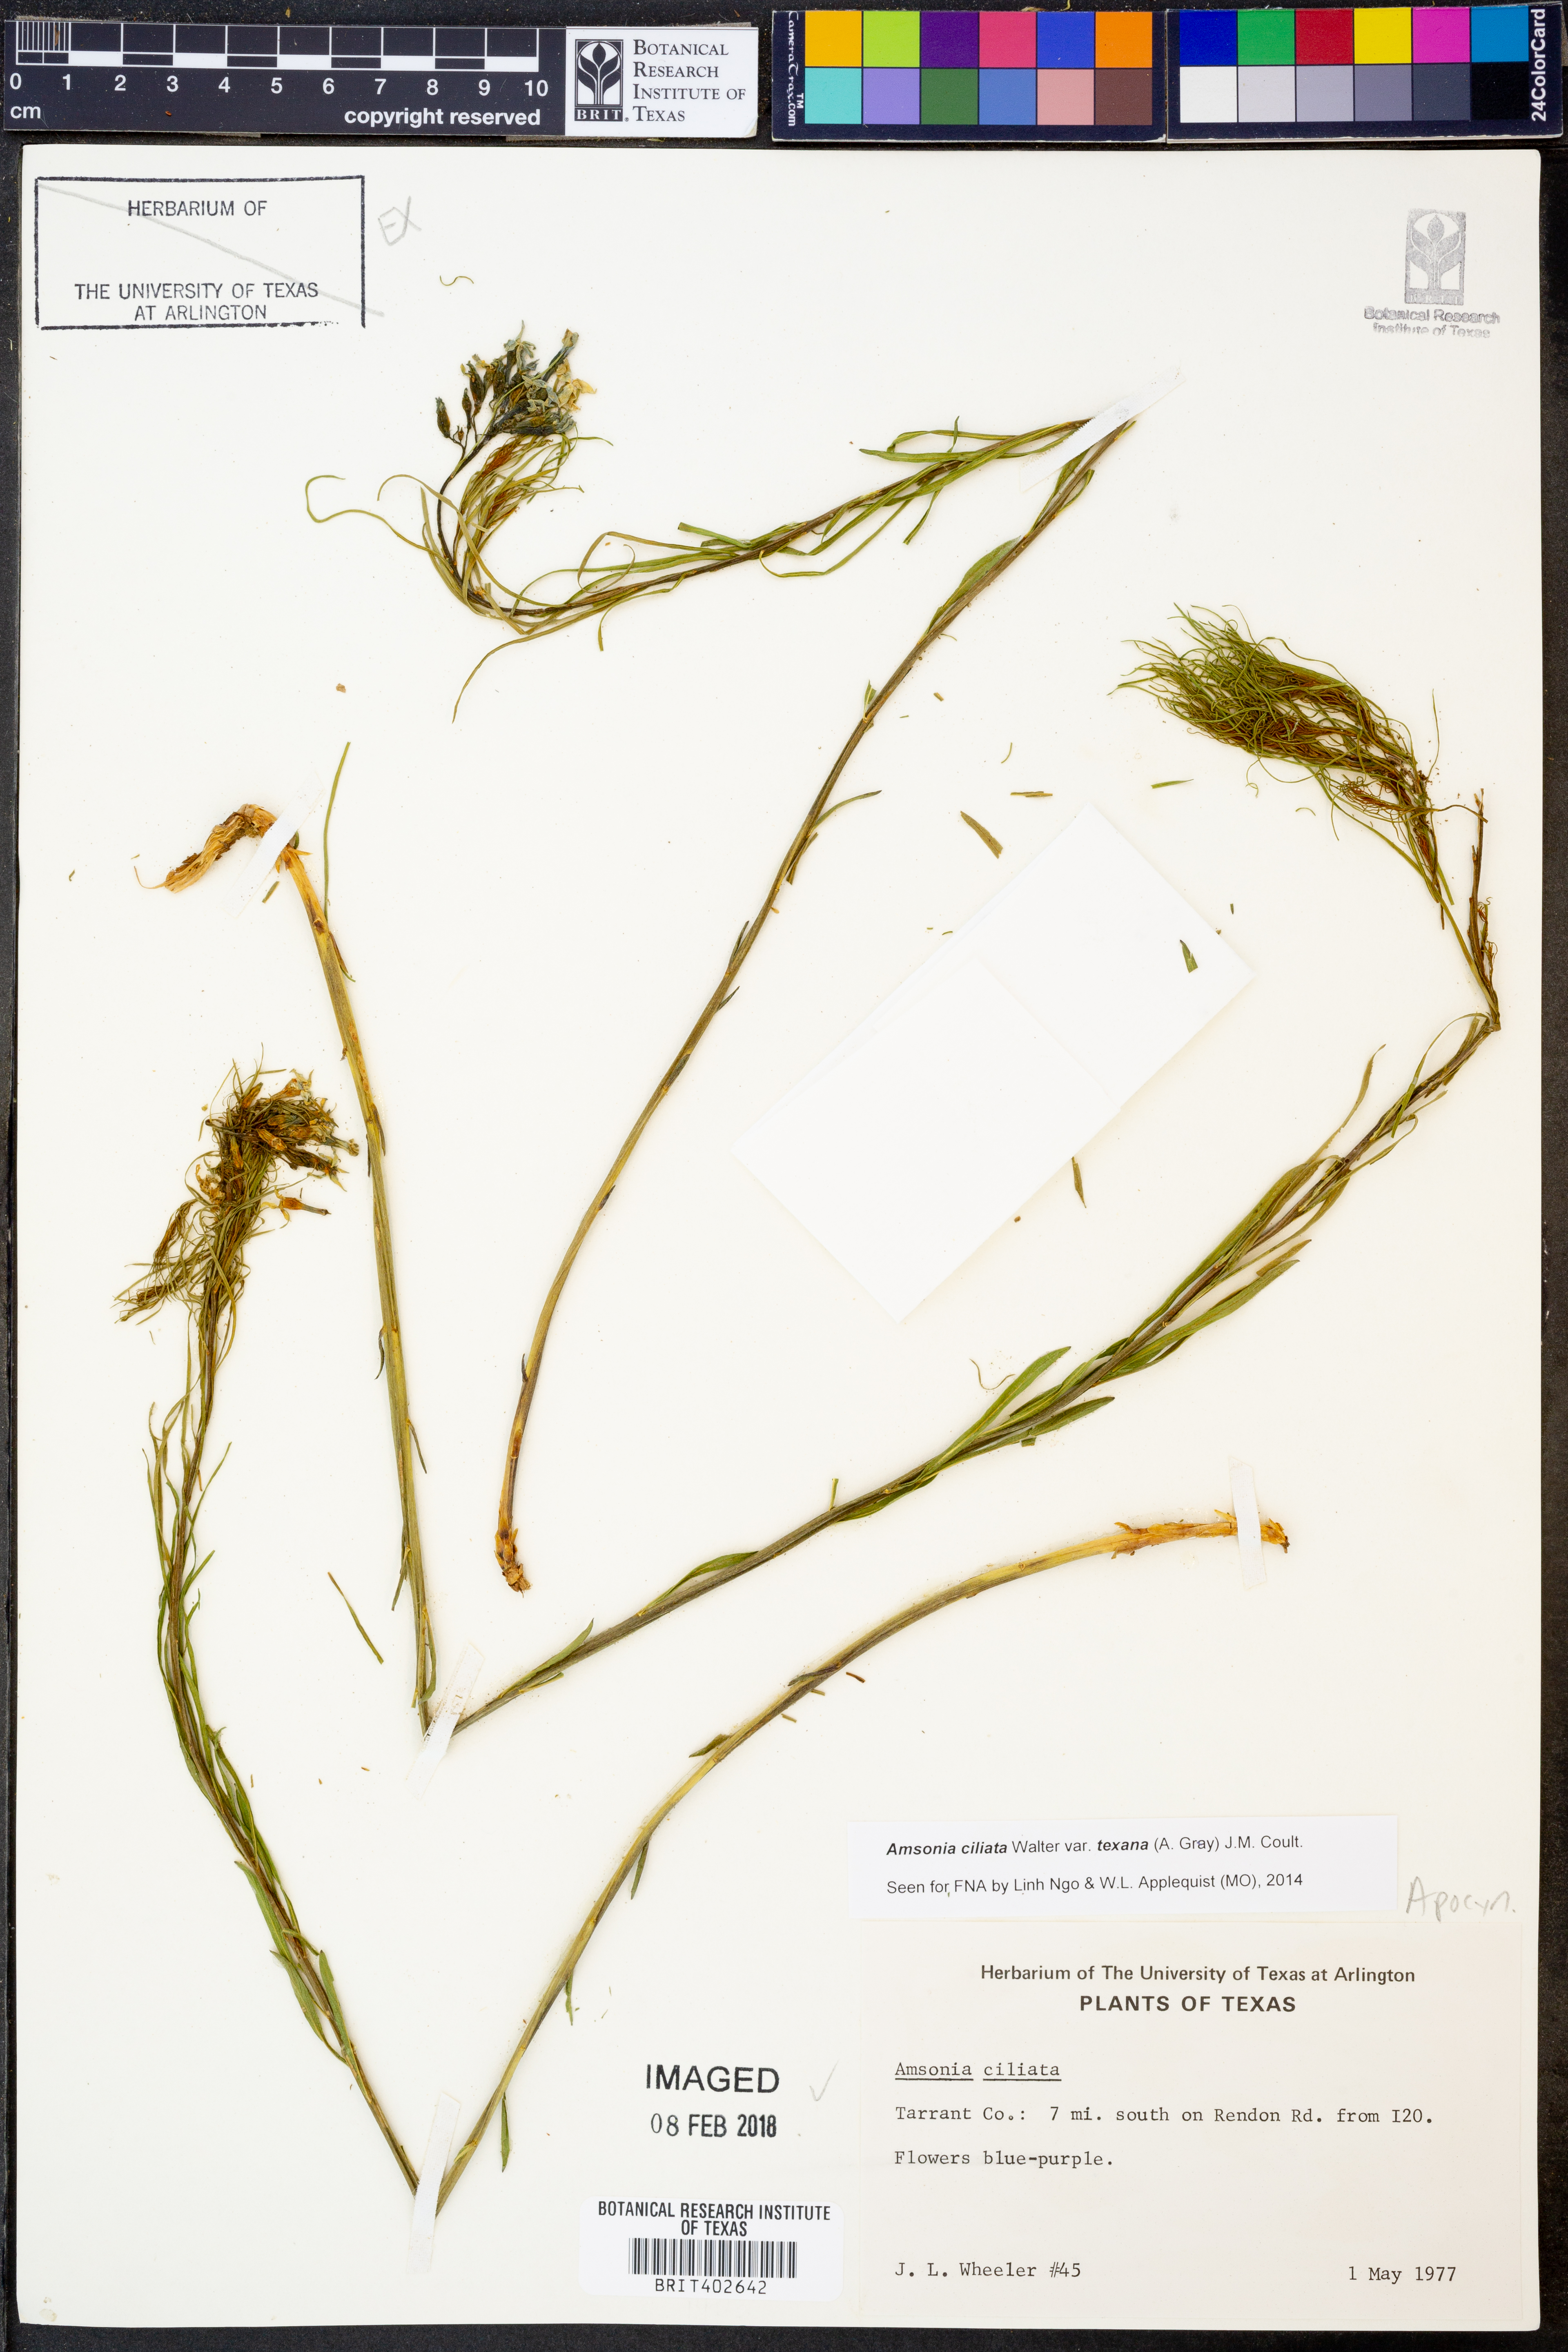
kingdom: Plantae
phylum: Tracheophyta
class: Magnoliopsida
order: Gentianales
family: Apocynaceae
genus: Amsonia
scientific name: Amsonia ciliata
